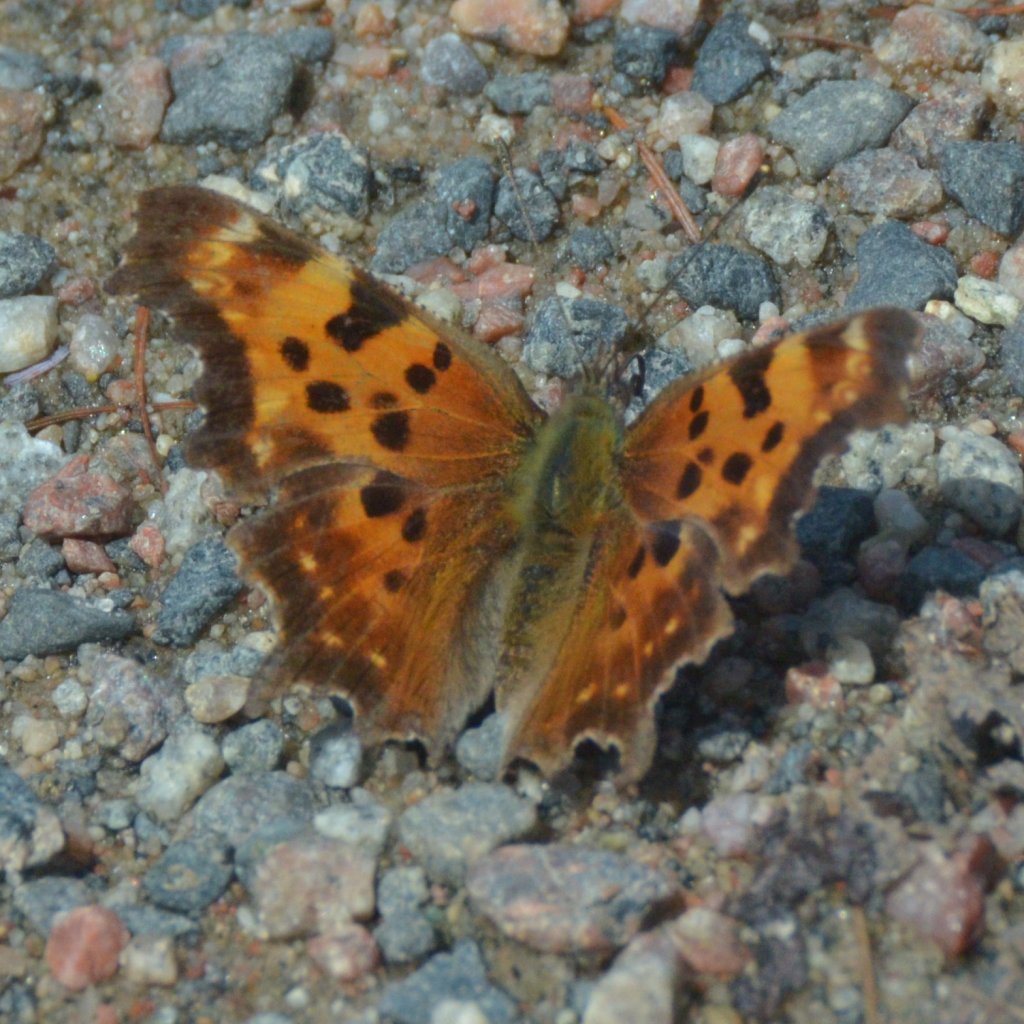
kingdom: Animalia
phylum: Arthropoda
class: Insecta
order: Lepidoptera
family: Nymphalidae
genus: Polygonia
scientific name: Polygonia faunus
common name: Green Comma
